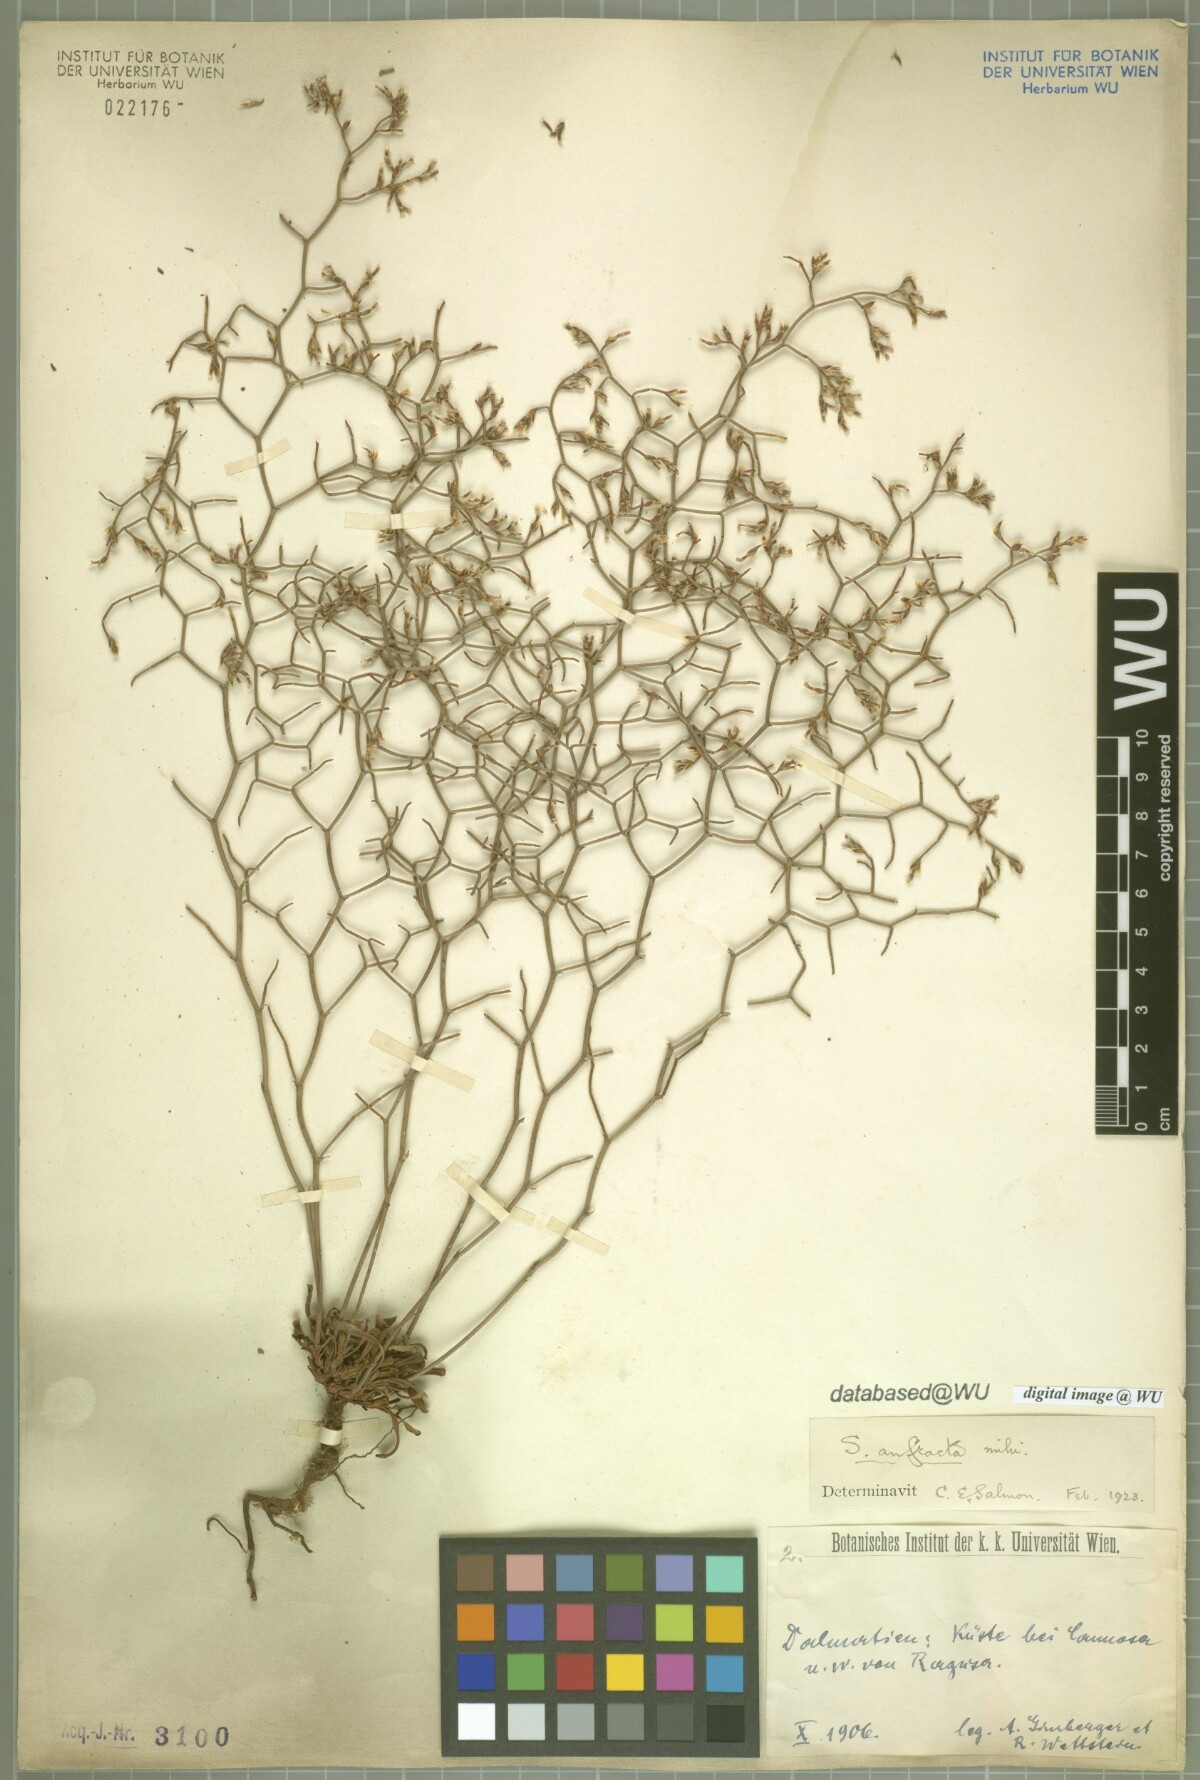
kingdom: Plantae
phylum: Tracheophyta
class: Magnoliopsida
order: Caryophyllales
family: Plumbaginaceae
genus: Limonium
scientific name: Limonium dictyophorum
